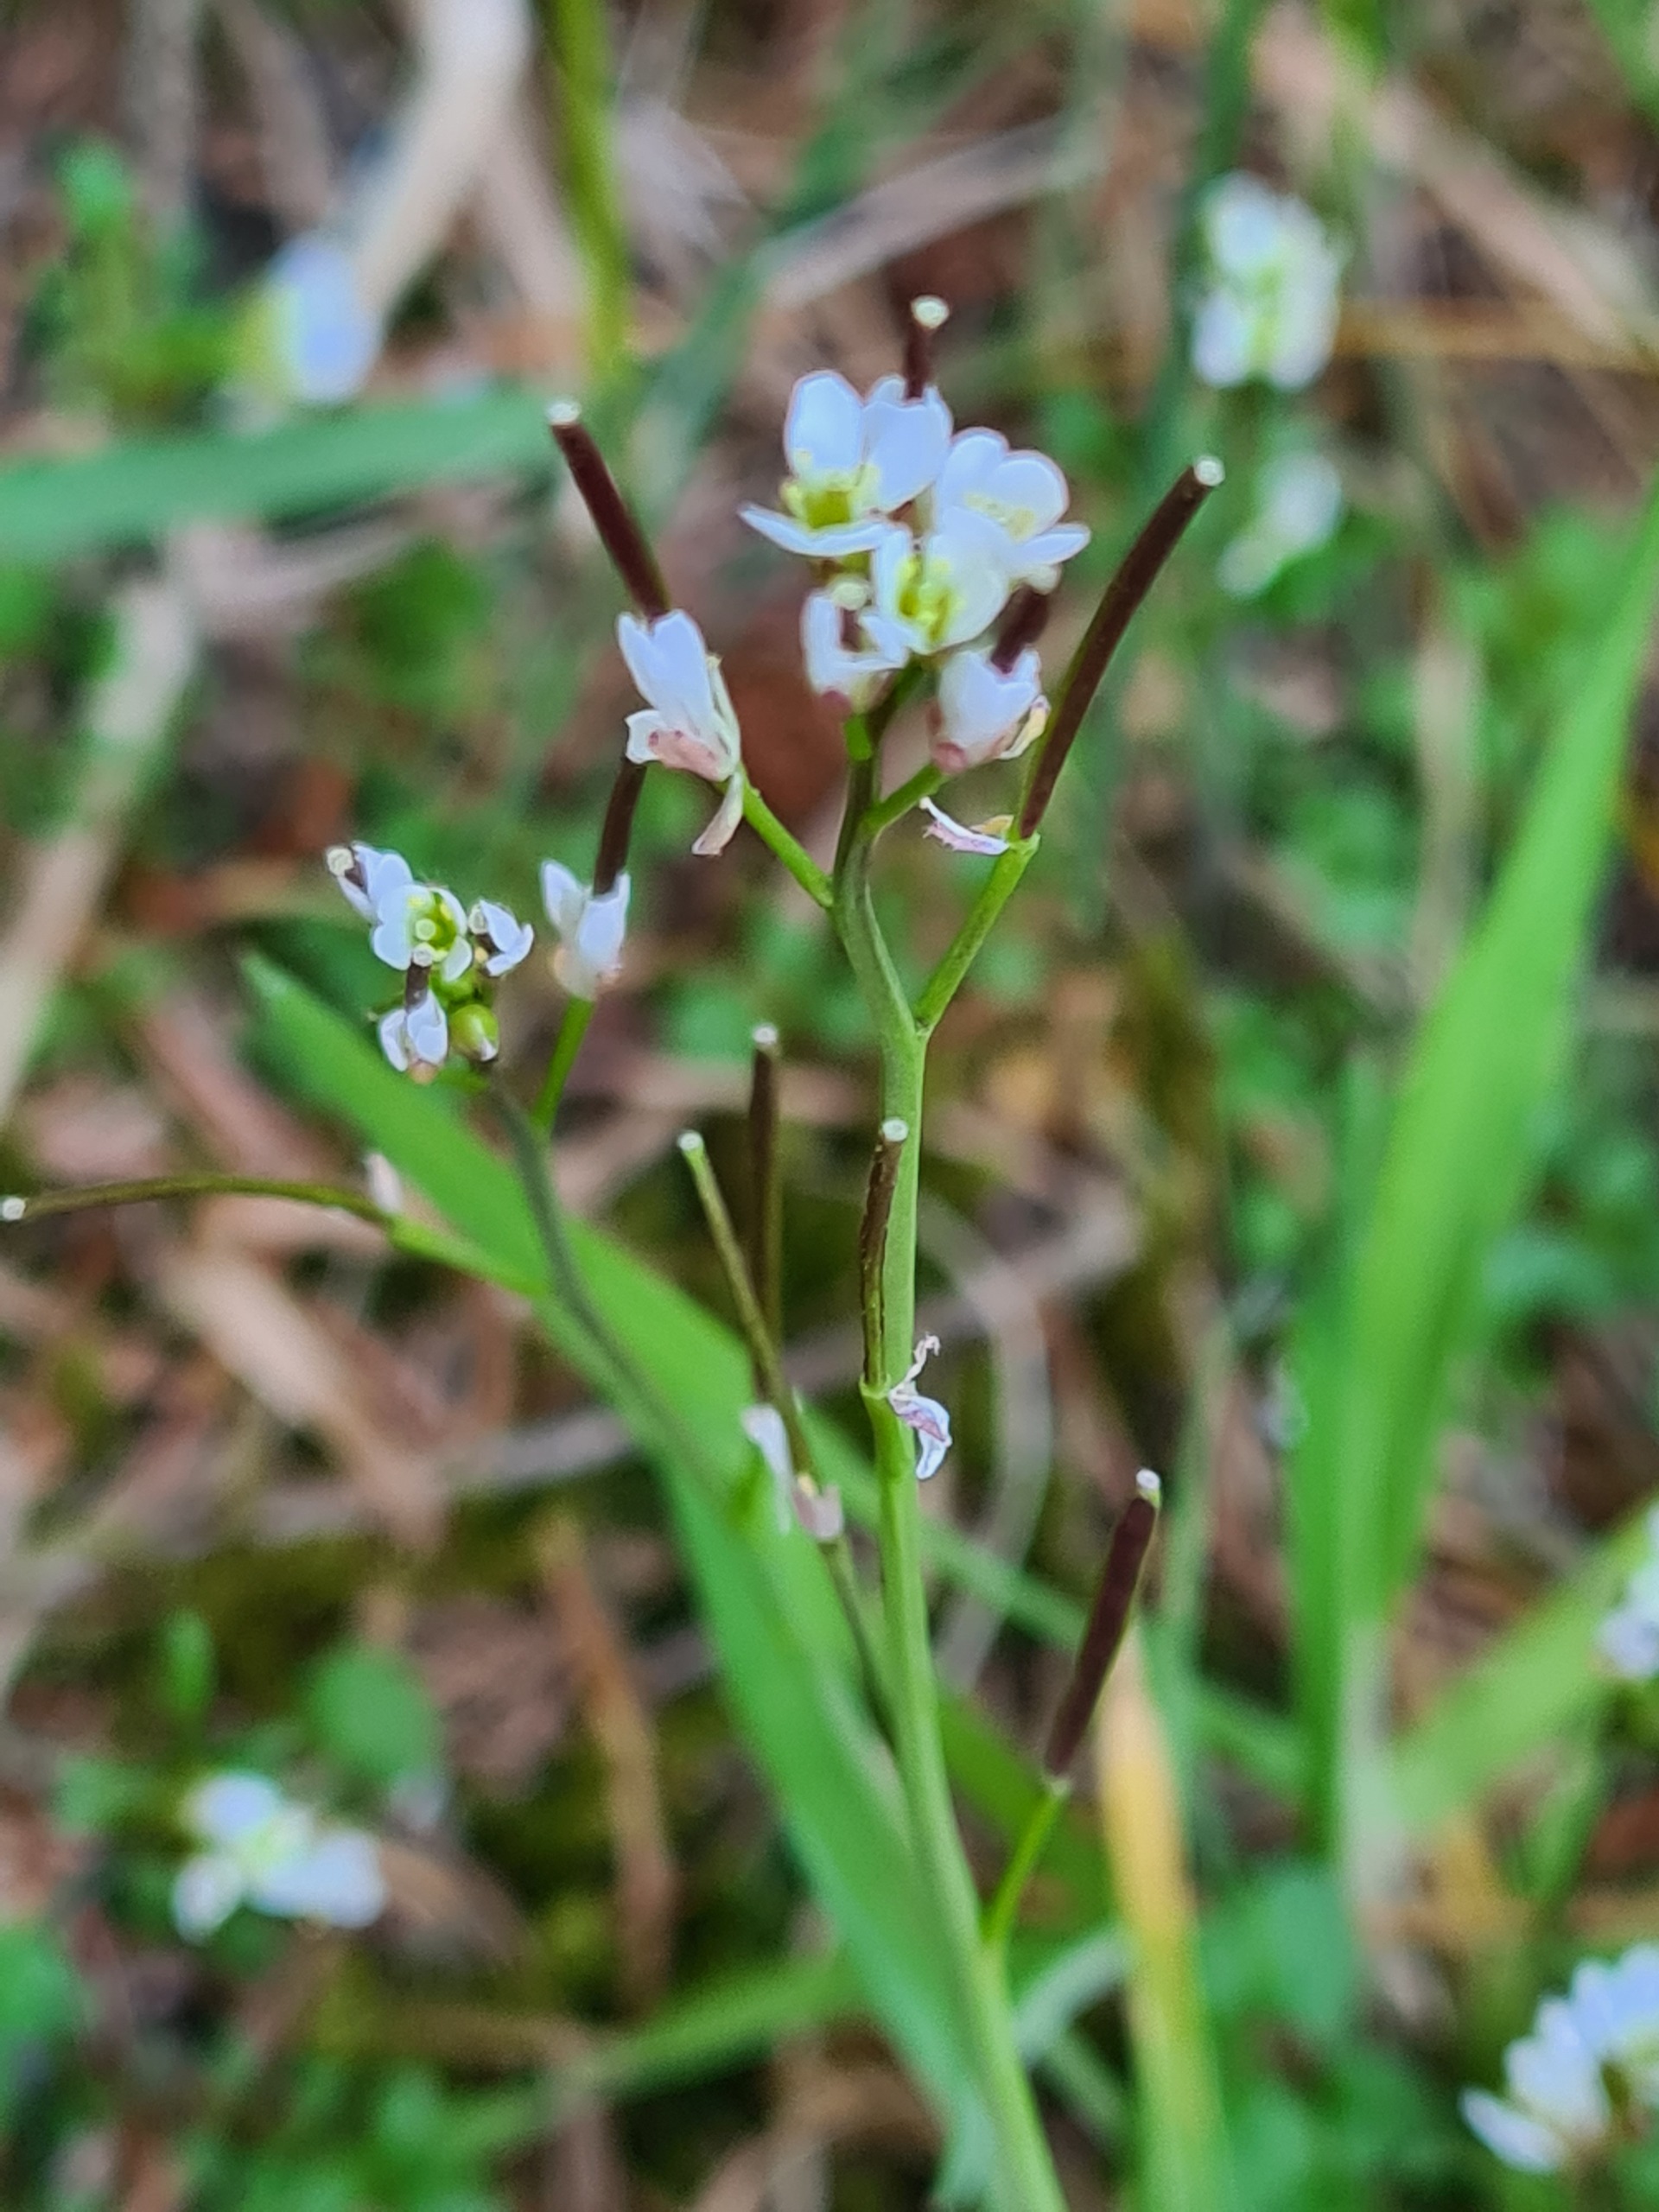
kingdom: Plantae
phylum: Tracheophyta
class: Magnoliopsida
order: Brassicales
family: Brassicaceae
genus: Cardamine
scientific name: Cardamine hirsuta
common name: Roset-springklap
